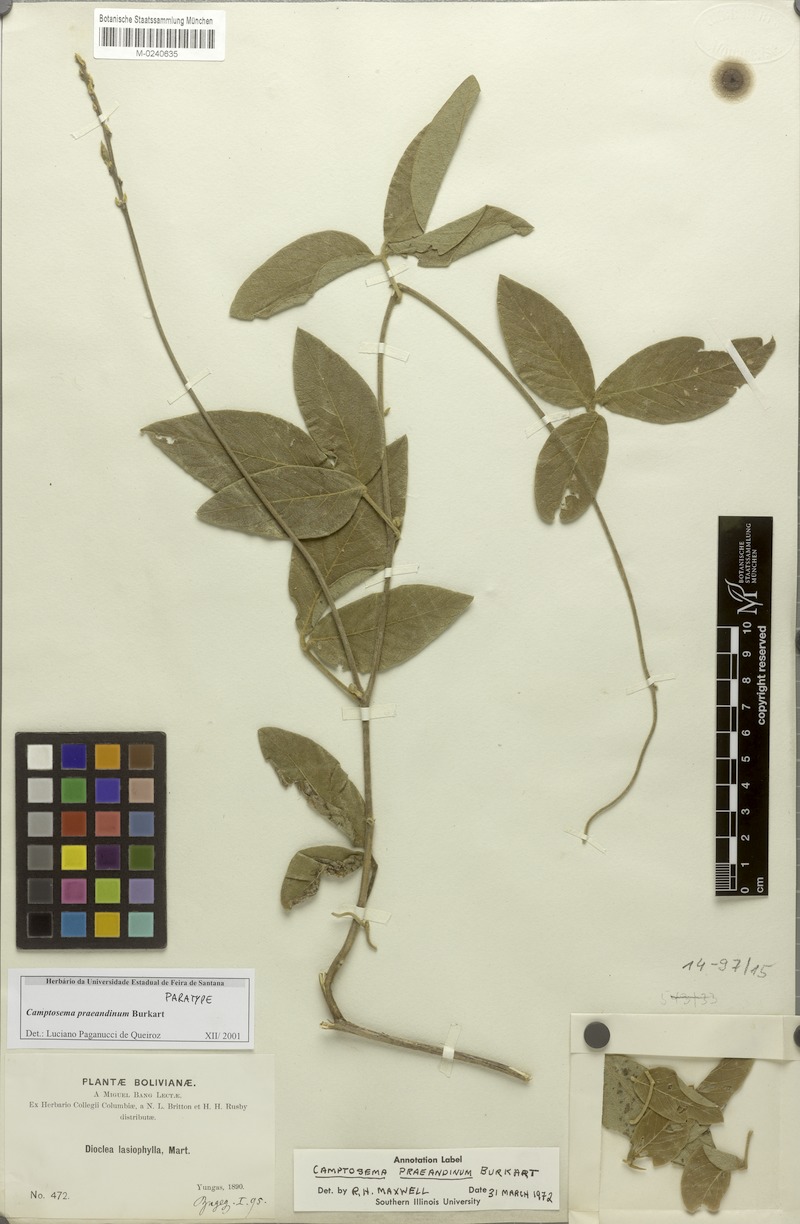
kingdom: Plantae
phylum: Tracheophyta
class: Magnoliopsida
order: Fabales
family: Fabaceae
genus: Cerradicola
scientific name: Cerradicola praeandina
